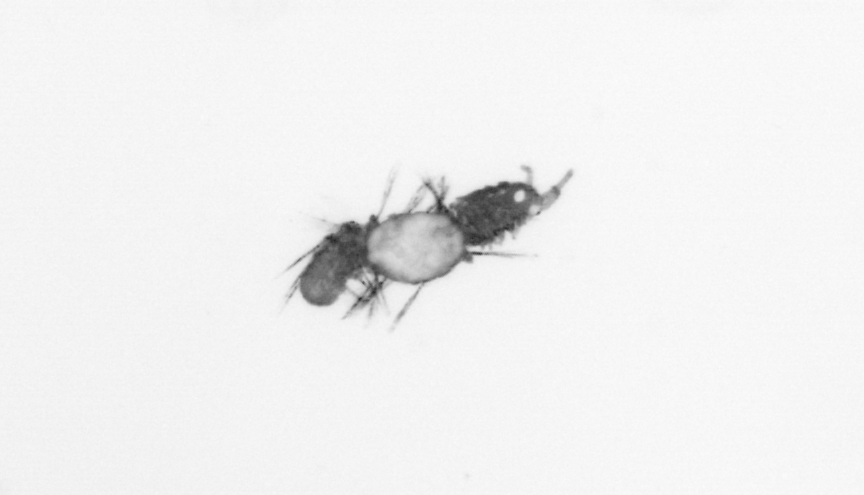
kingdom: Animalia
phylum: Annelida
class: Polychaeta
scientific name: Polychaeta
